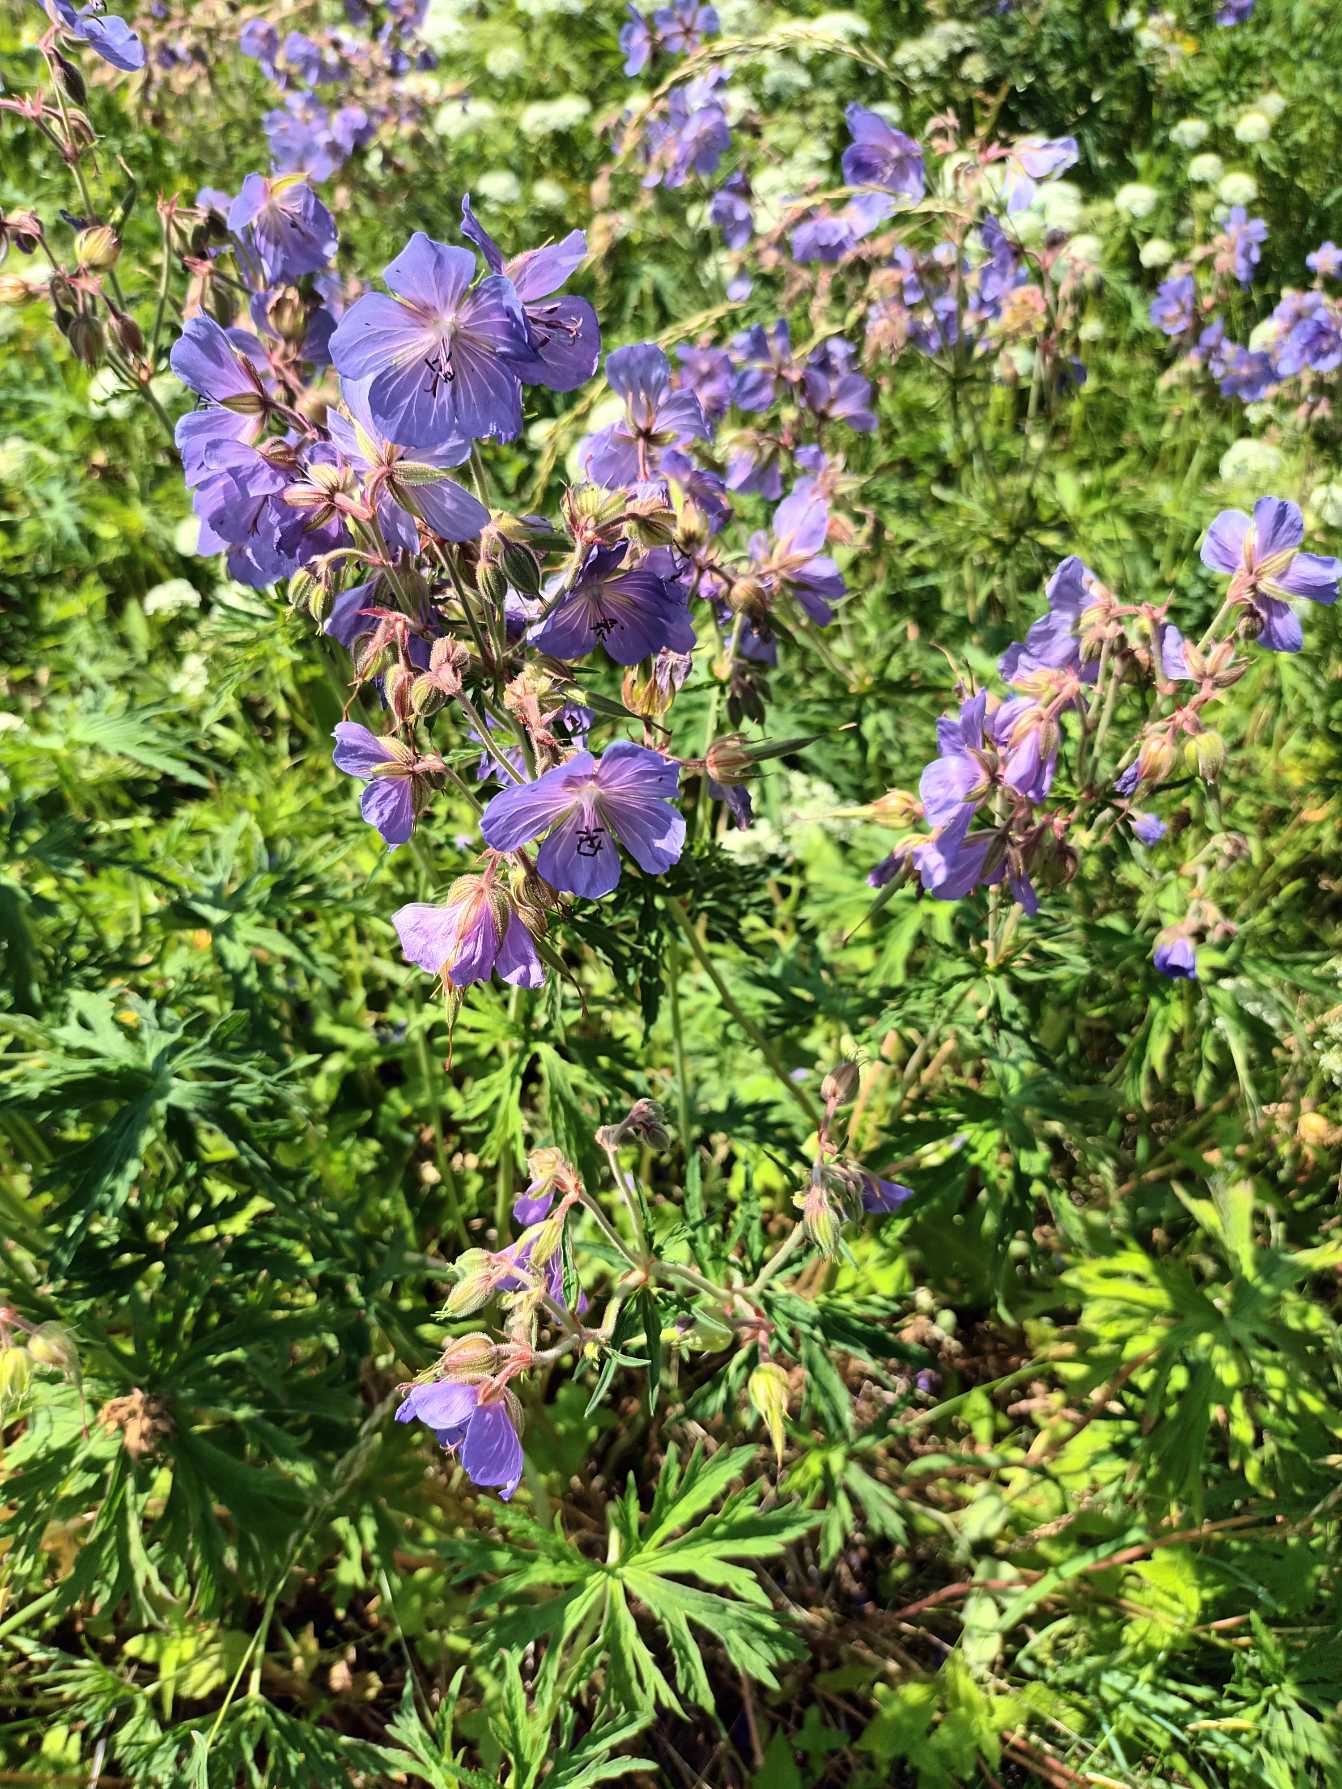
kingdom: Plantae
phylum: Tracheophyta
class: Magnoliopsida
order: Geraniales
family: Geraniaceae
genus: Geranium
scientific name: Geranium pratense
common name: Eng-storkenæb
